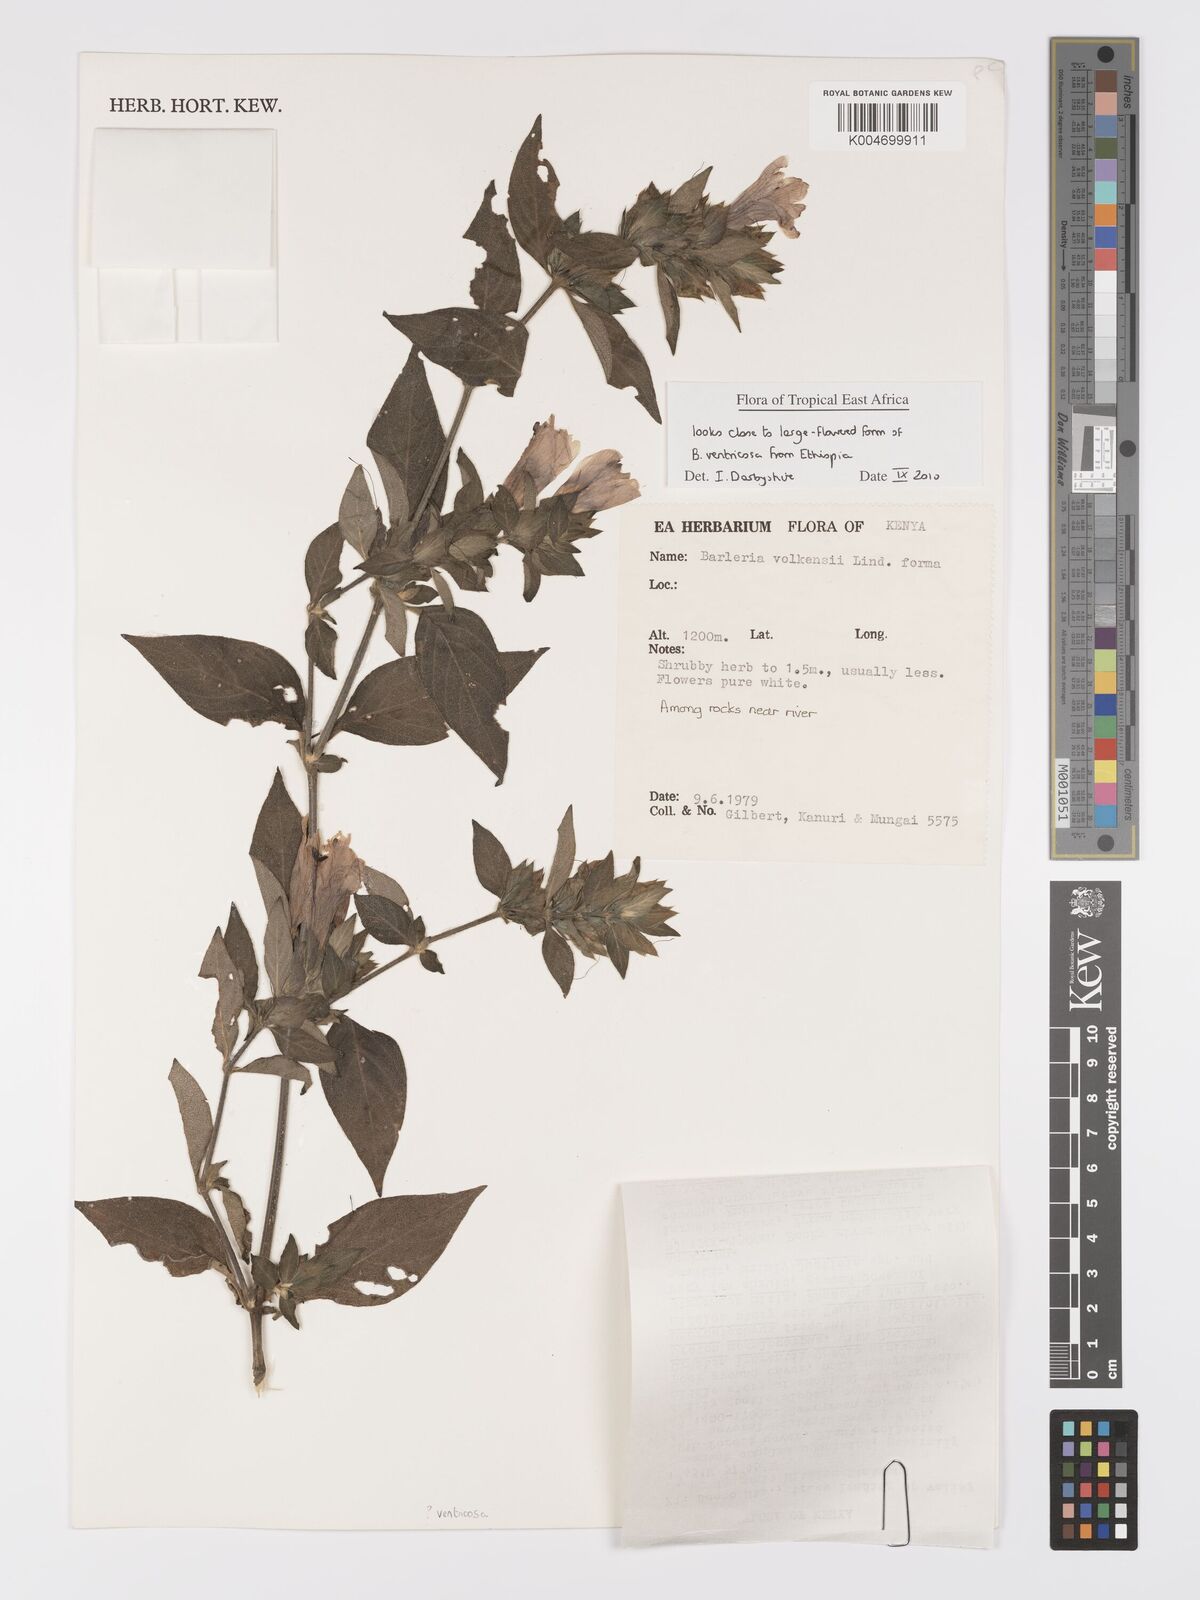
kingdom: Plantae
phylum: Tracheophyta
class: Magnoliopsida
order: Lamiales
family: Acanthaceae
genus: Barleria
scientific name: Barleria volkensii
